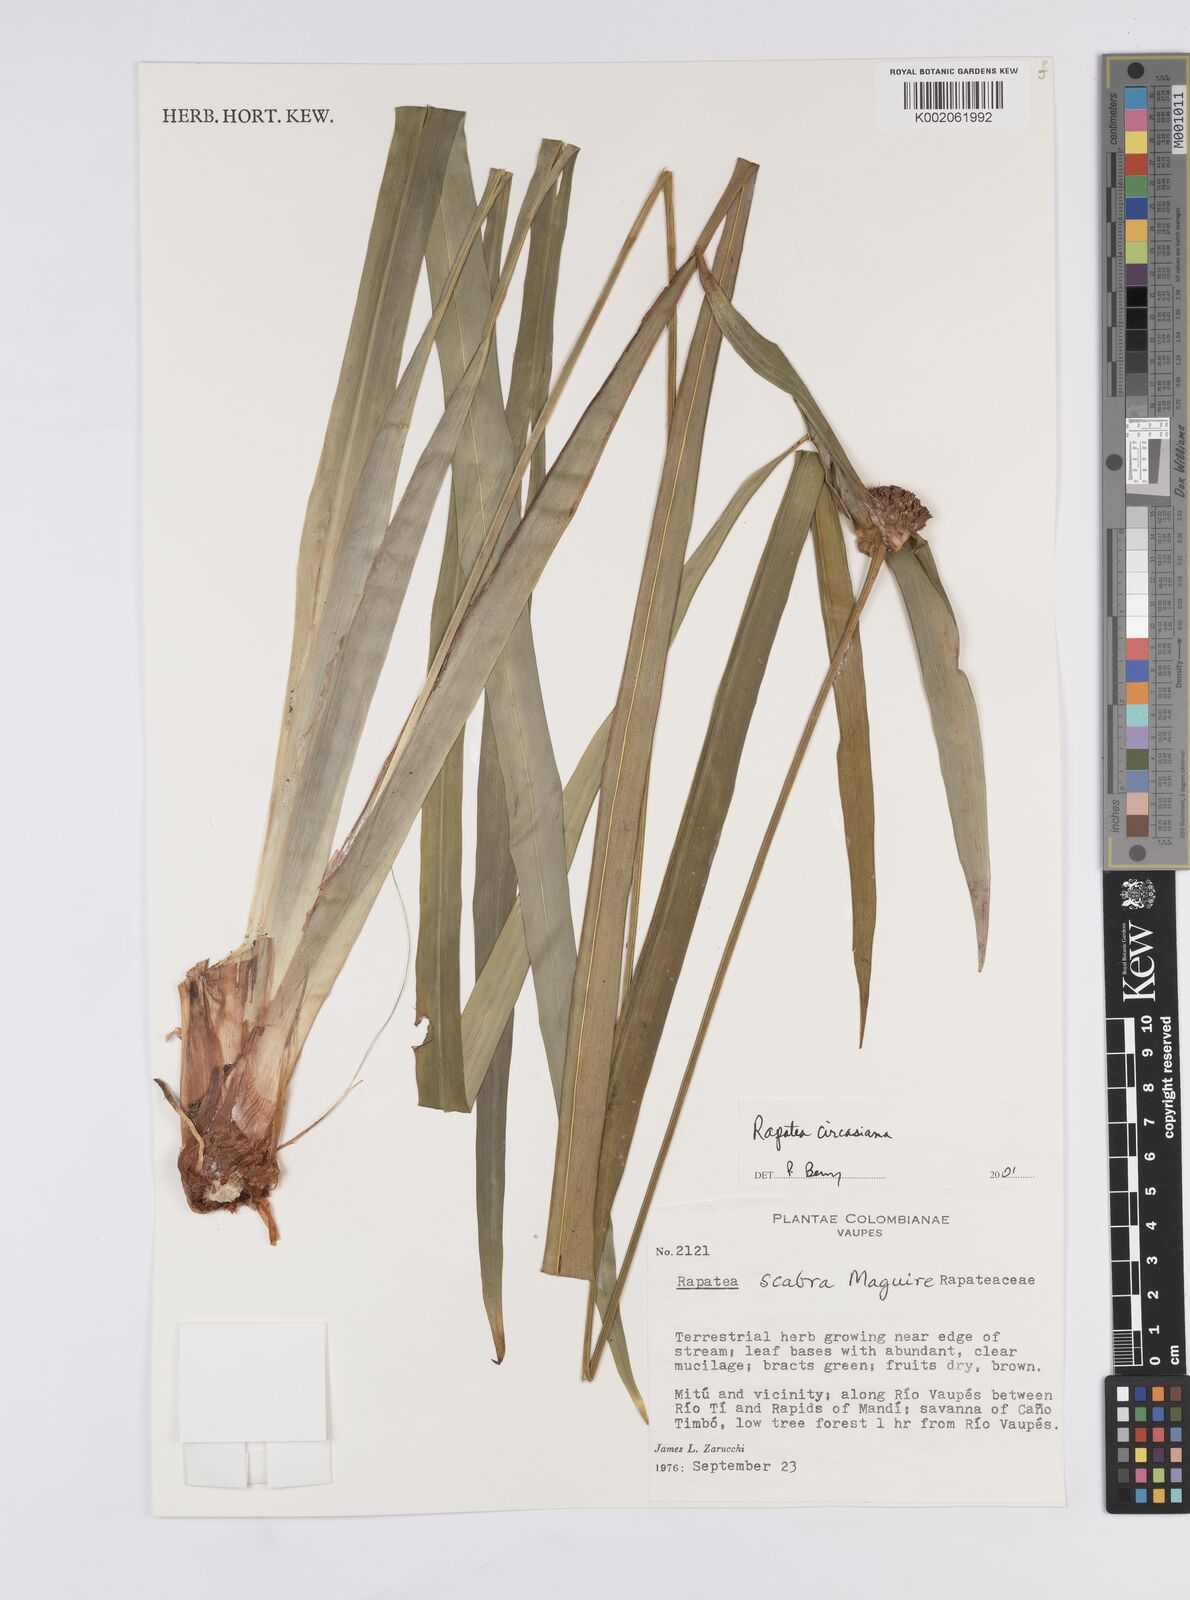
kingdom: Plantae
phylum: Tracheophyta
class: Liliopsida
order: Poales
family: Rapateaceae
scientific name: Rapateaceae
